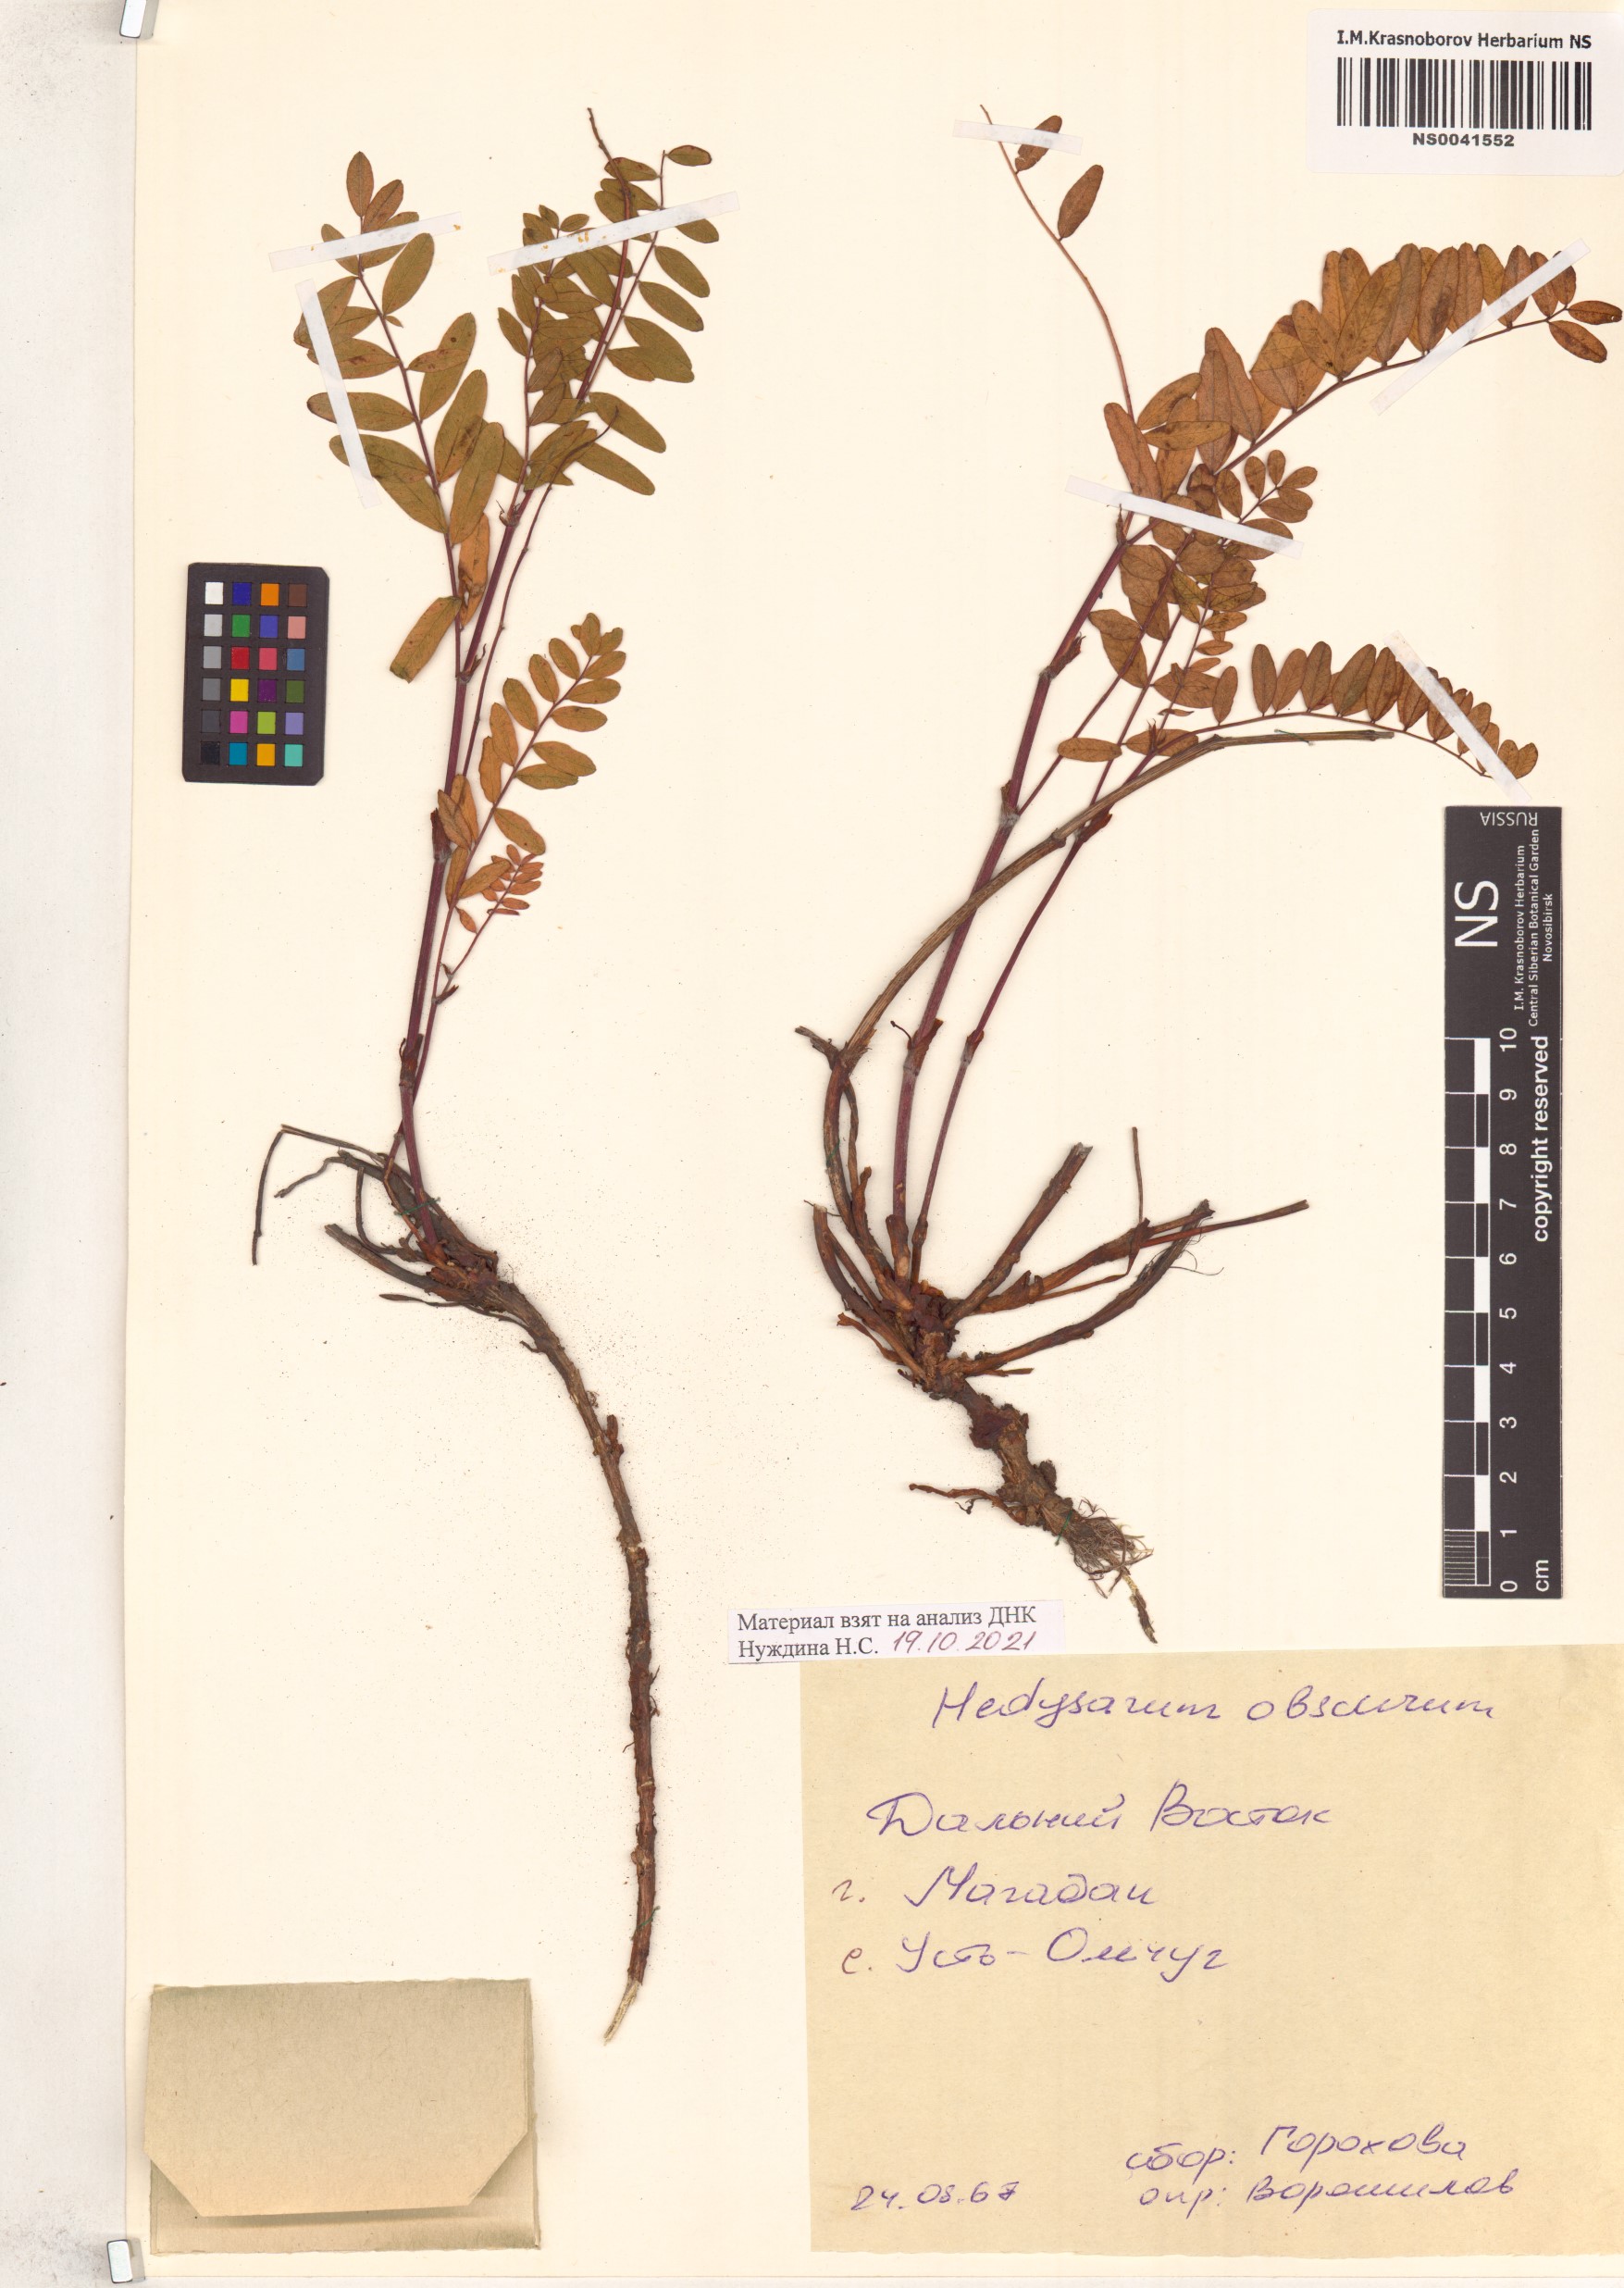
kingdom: Plantae
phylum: Tracheophyta
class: Magnoliopsida
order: Fabales
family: Fabaceae
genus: Hedysarum
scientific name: Hedysarum hedysaroides
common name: Alpine french-honeysuckle
